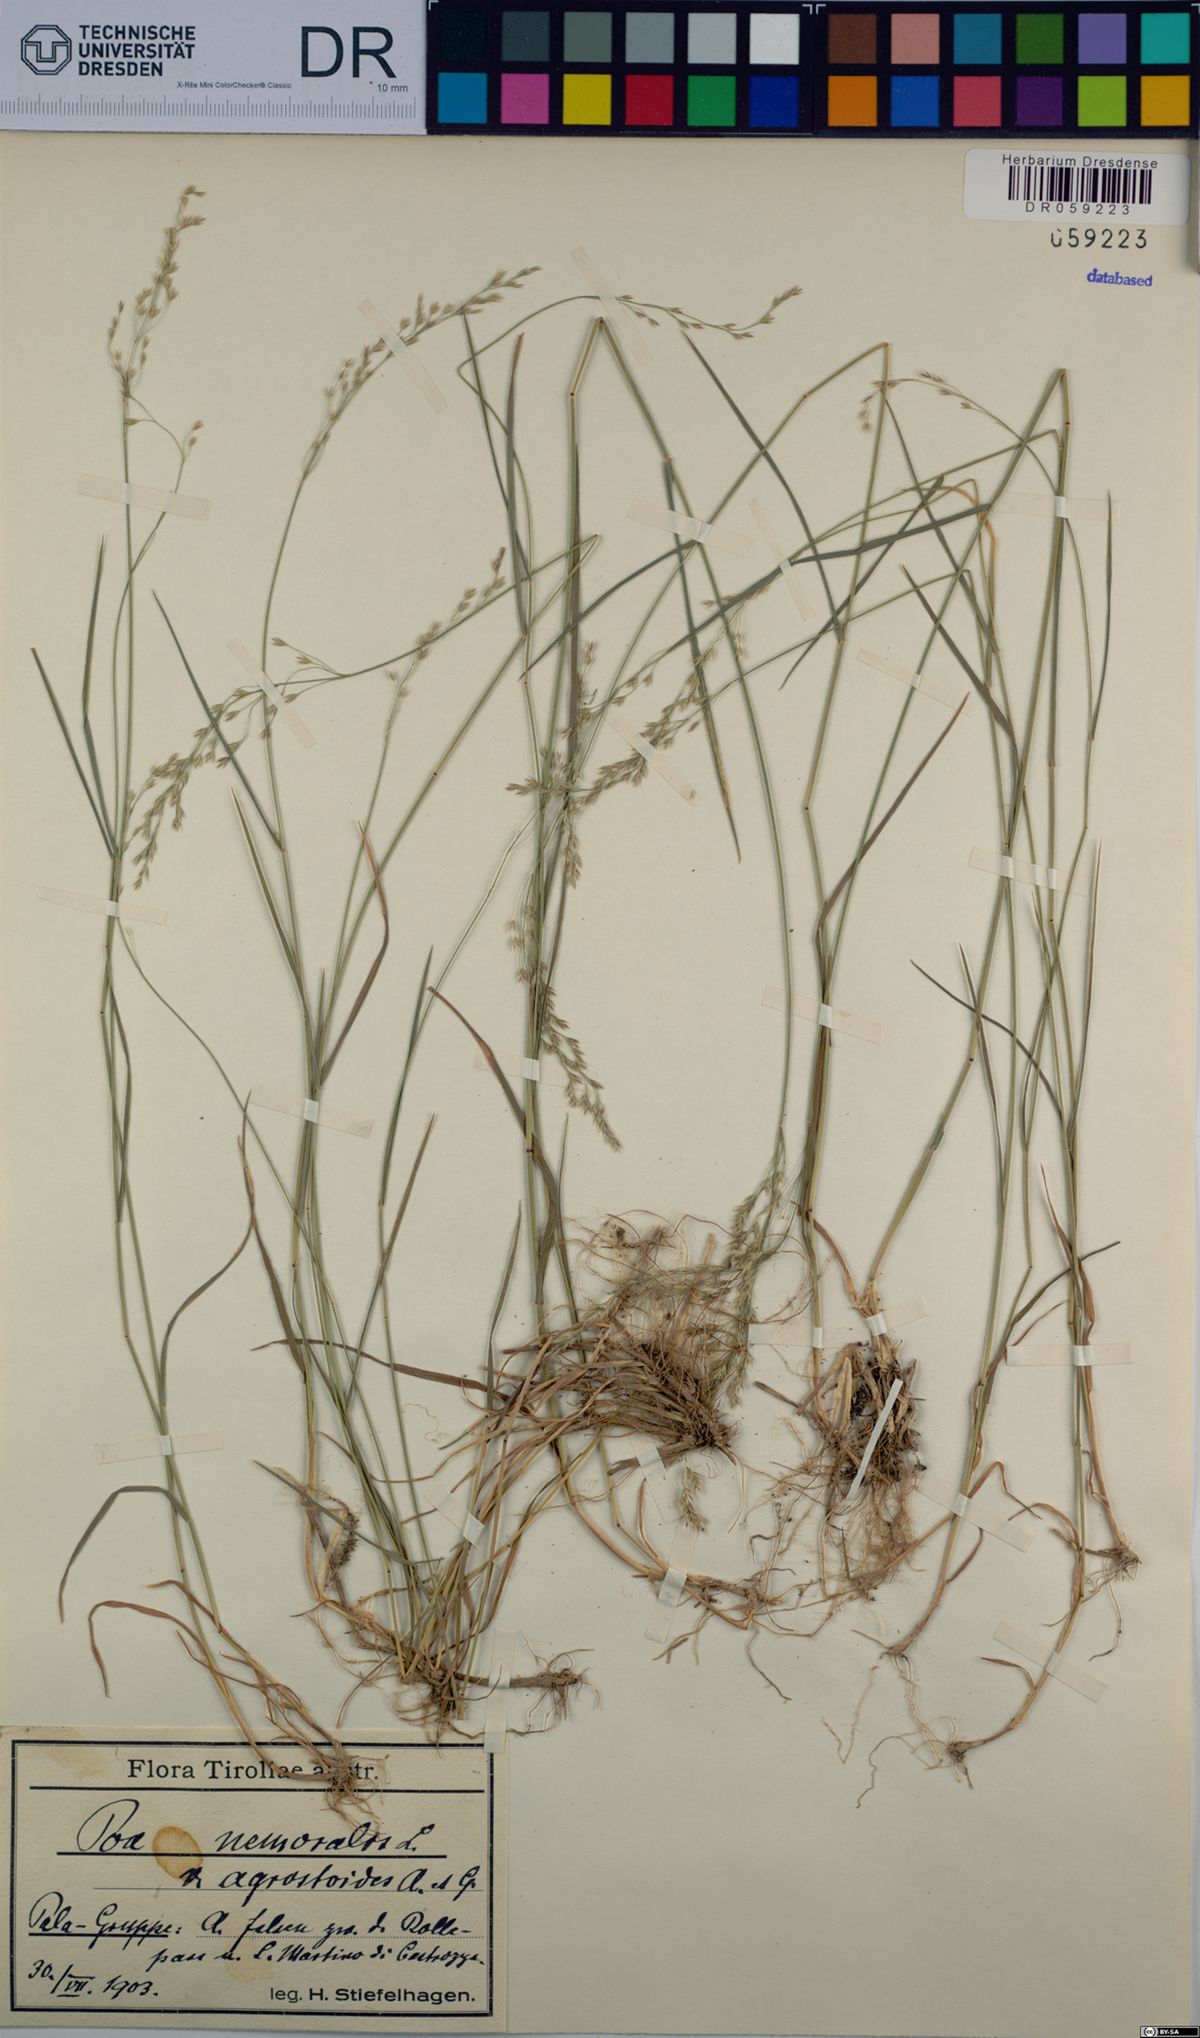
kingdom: Plantae
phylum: Tracheophyta
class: Liliopsida
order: Poales
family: Poaceae
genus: Poa
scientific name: Poa nemoralis
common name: Wood bluegrass
